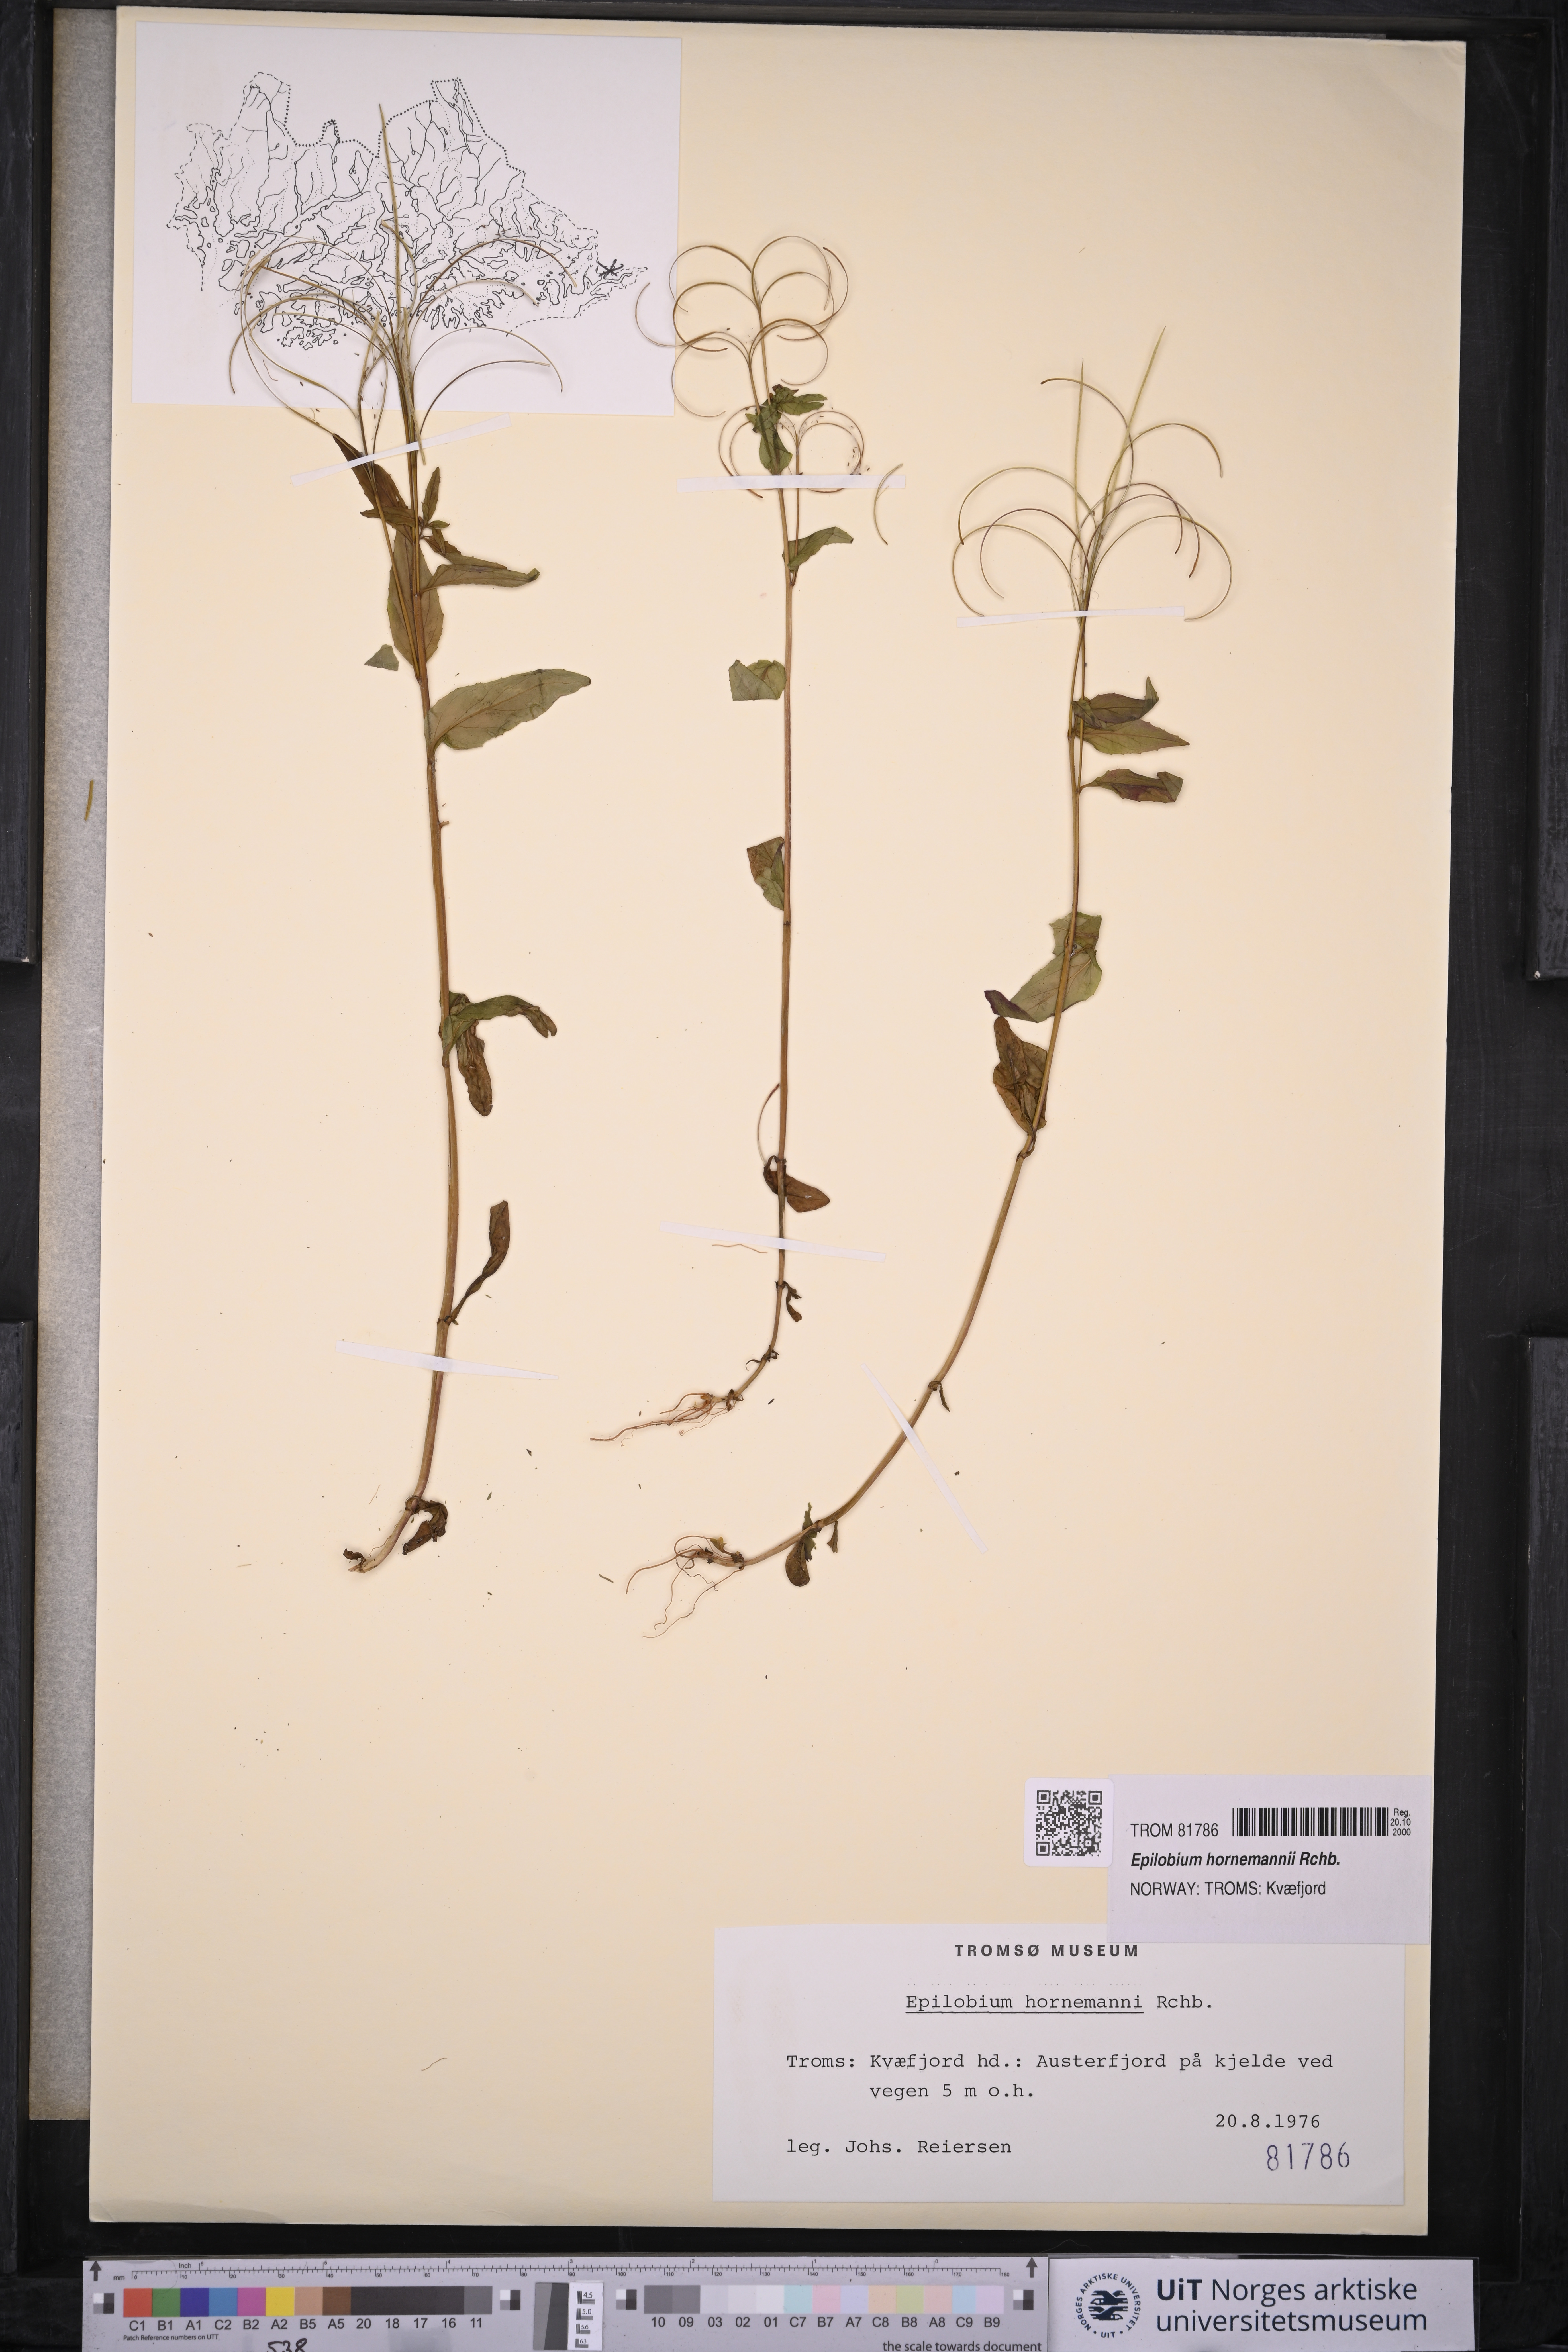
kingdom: Plantae
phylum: Tracheophyta
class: Magnoliopsida
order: Myrtales
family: Onagraceae
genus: Epilobium
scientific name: Epilobium hornemannii
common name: Hornemann's willowherb
